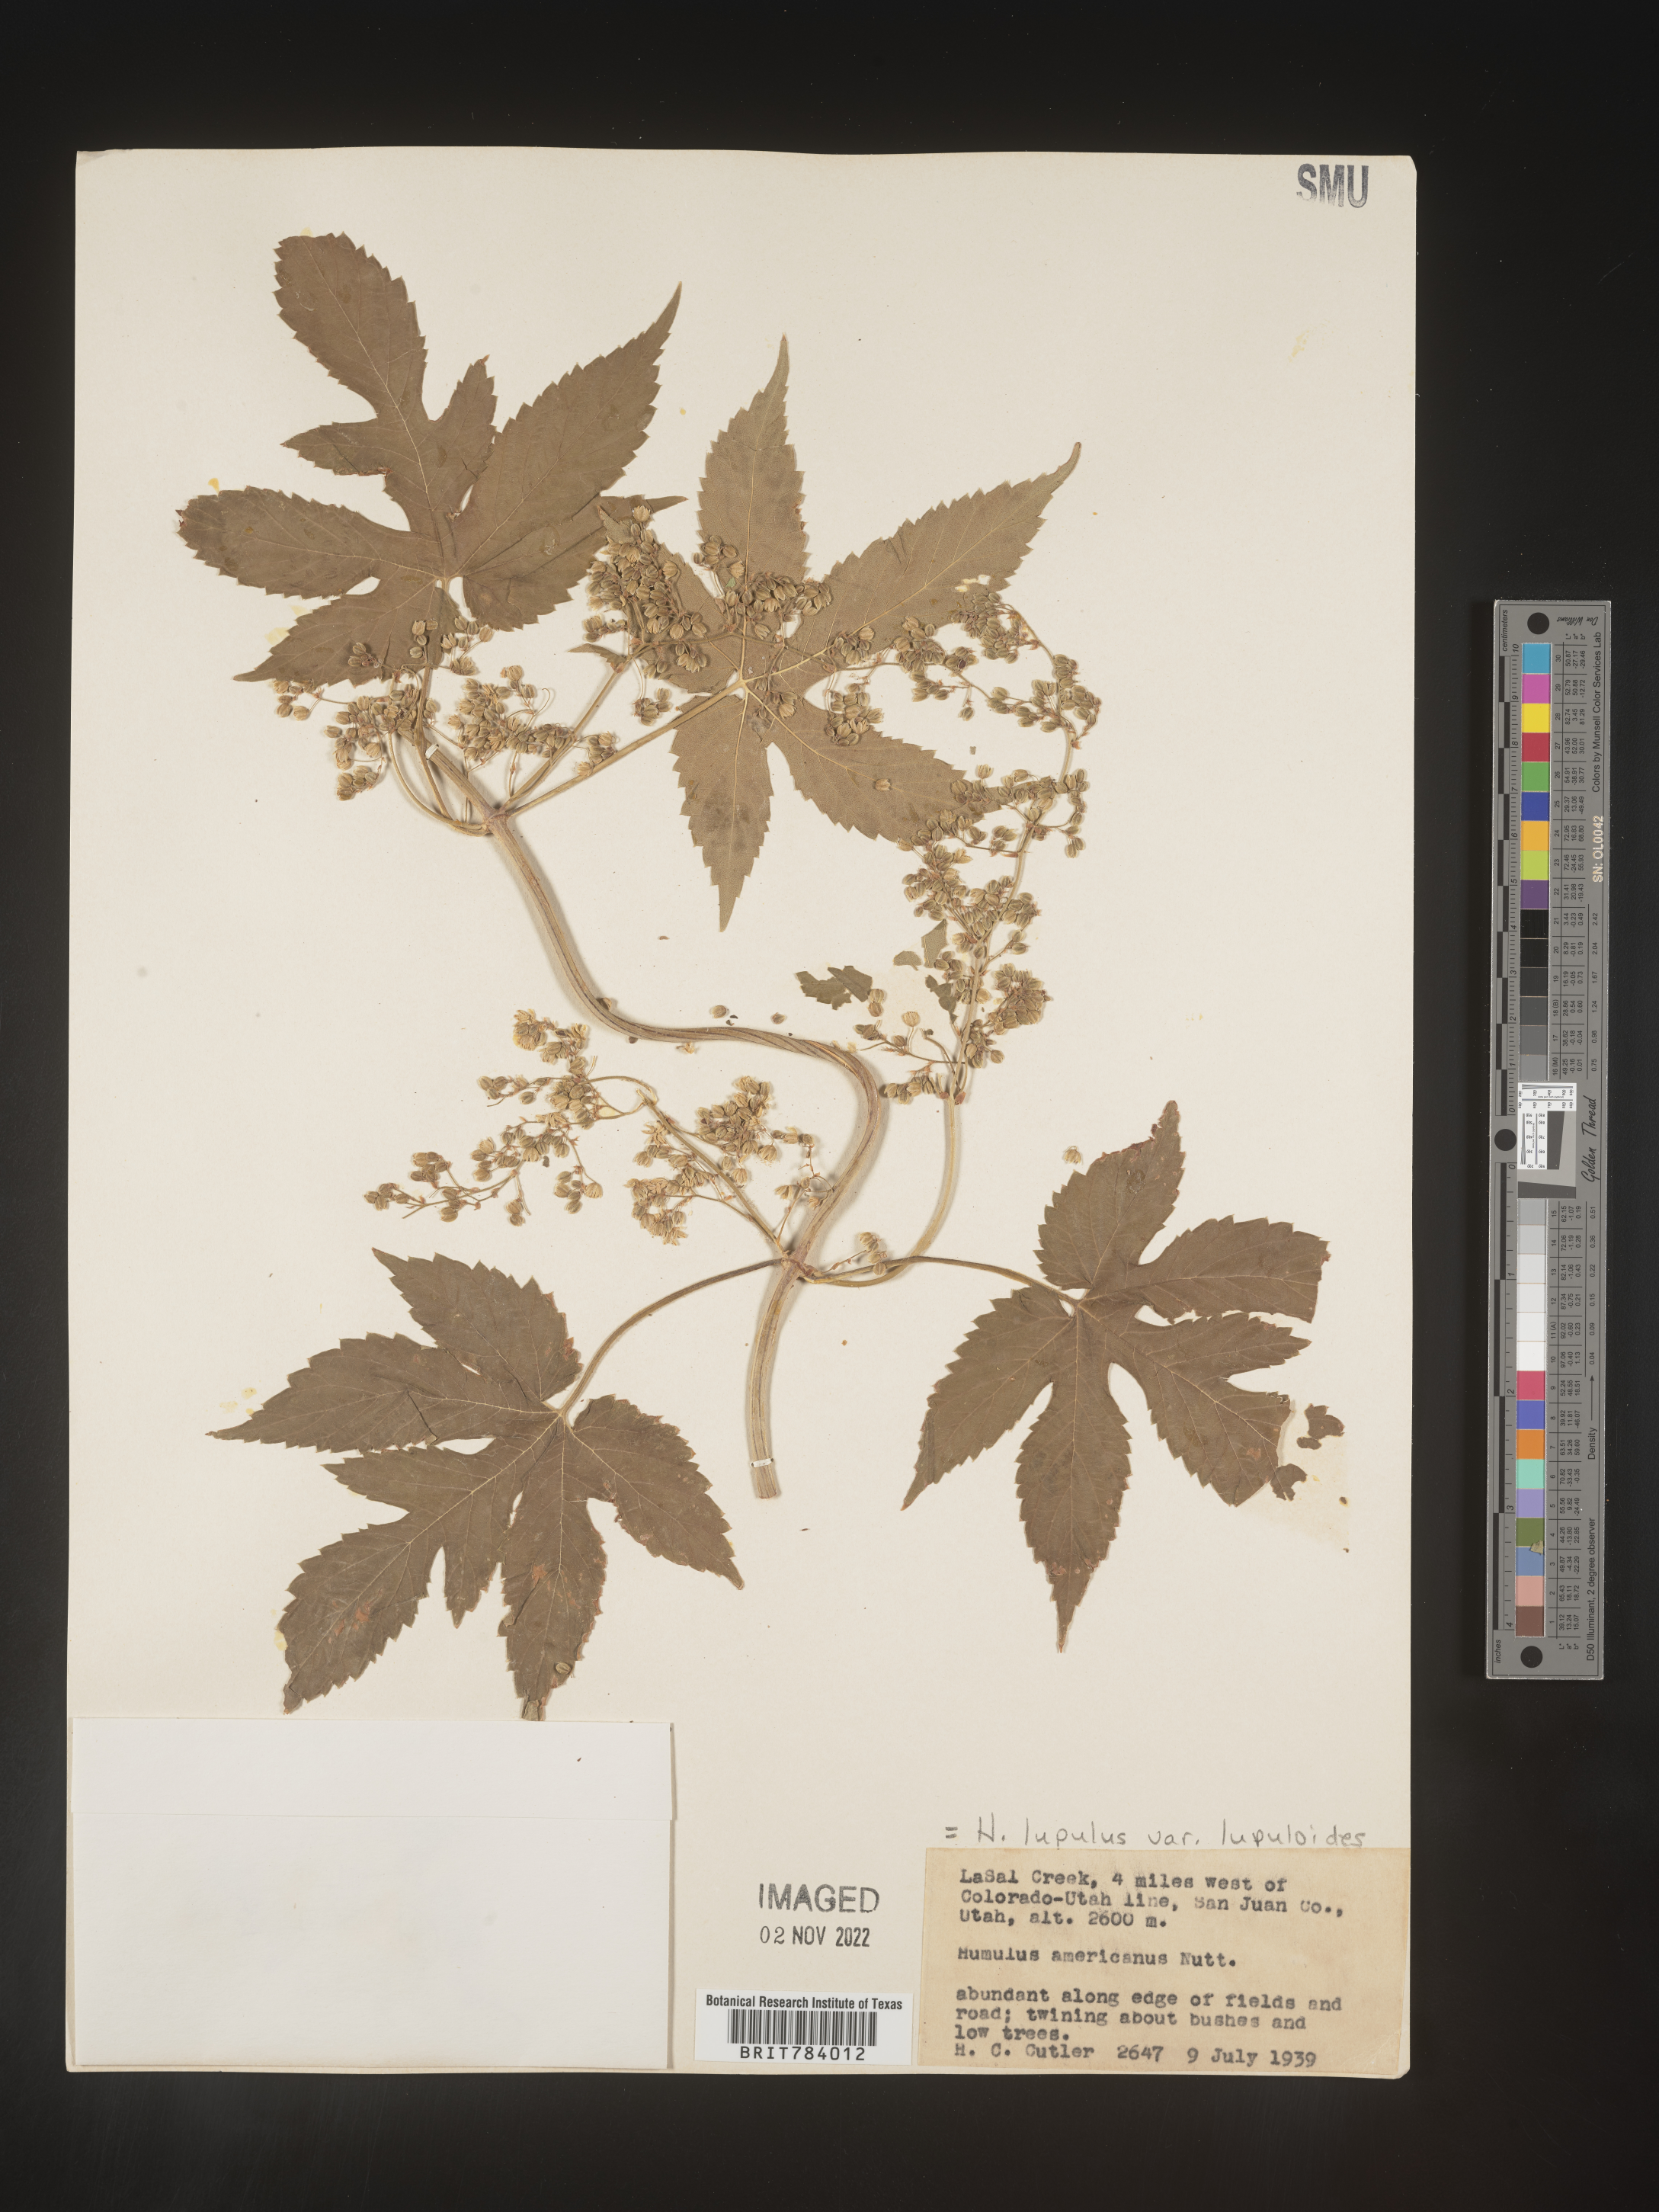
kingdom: Plantae
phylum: Tracheophyta
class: Magnoliopsida
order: Rosales
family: Cannabaceae
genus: Humulus
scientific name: Humulus americanus
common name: American hops
